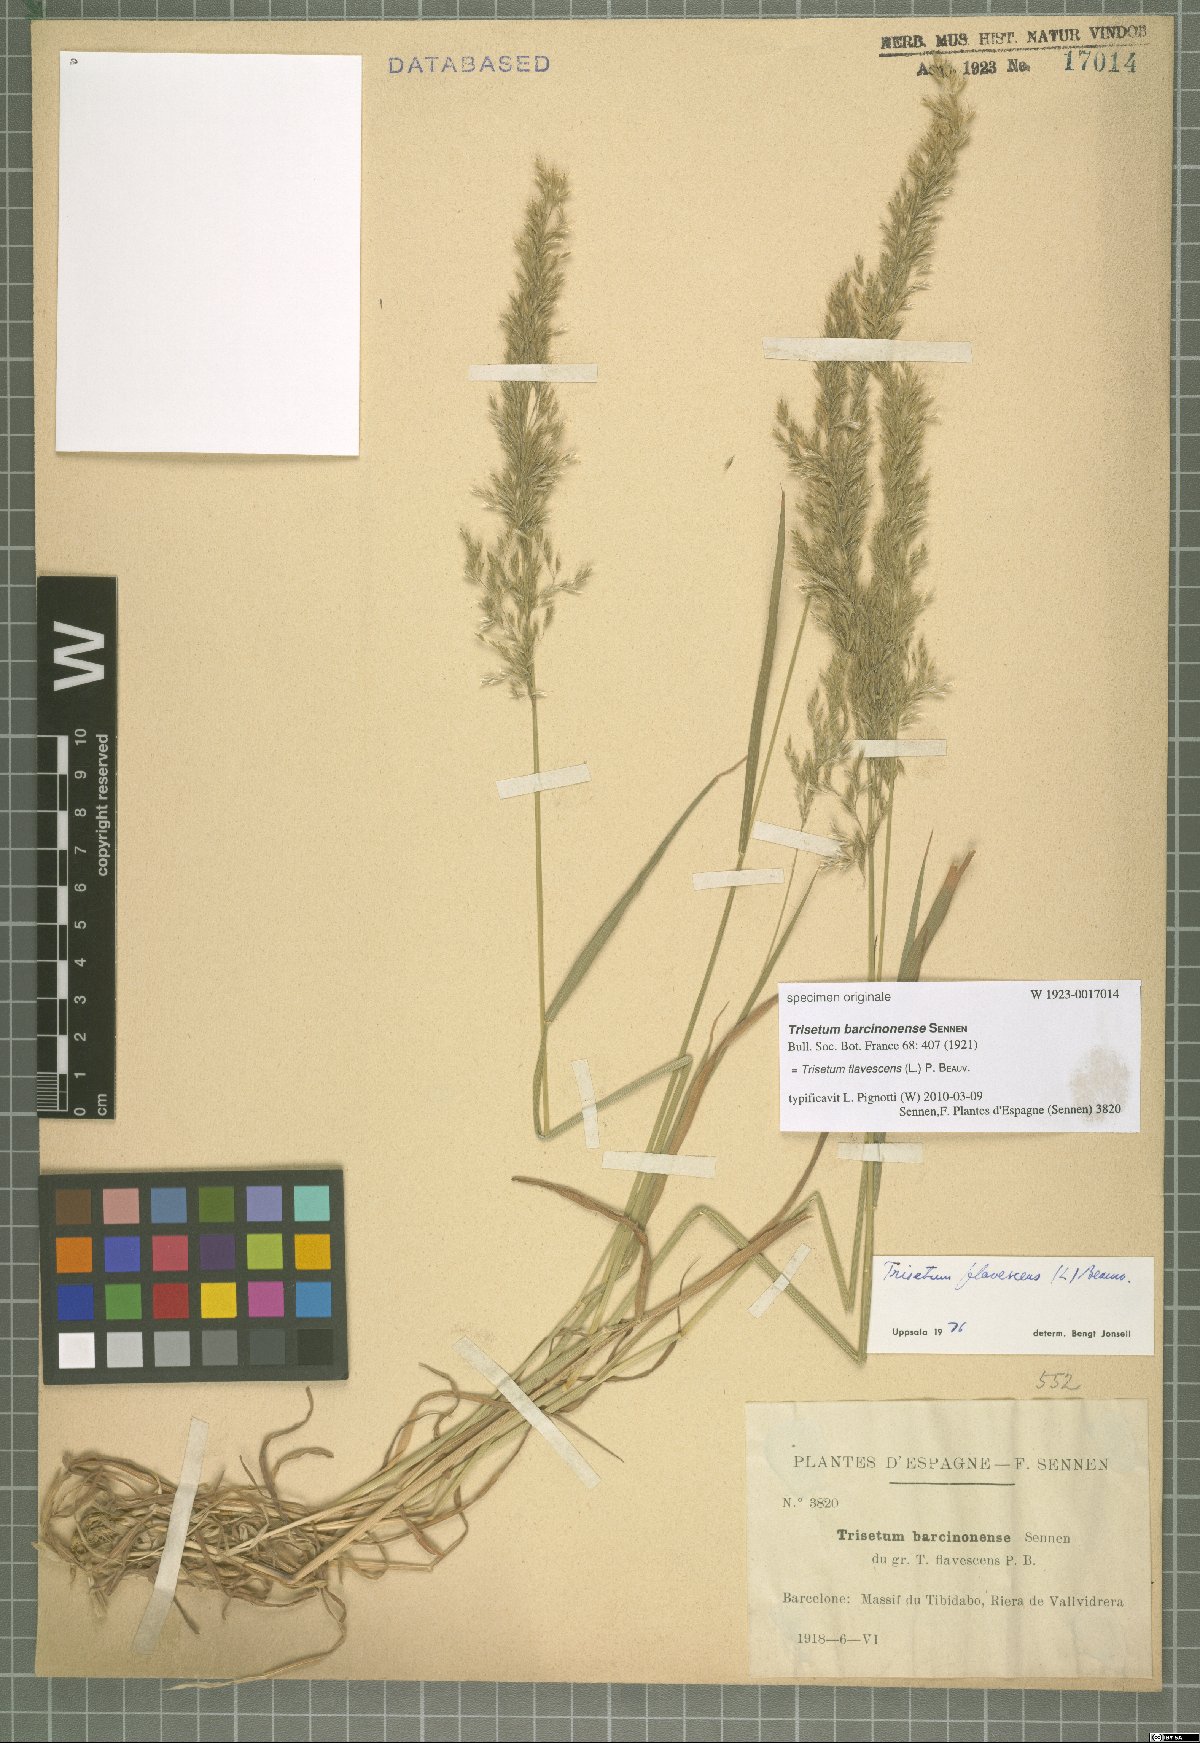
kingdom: Plantae
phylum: Tracheophyta
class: Liliopsida
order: Poales
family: Poaceae
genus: Trisetum
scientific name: Trisetum flavescens
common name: Yellow oat-grass
